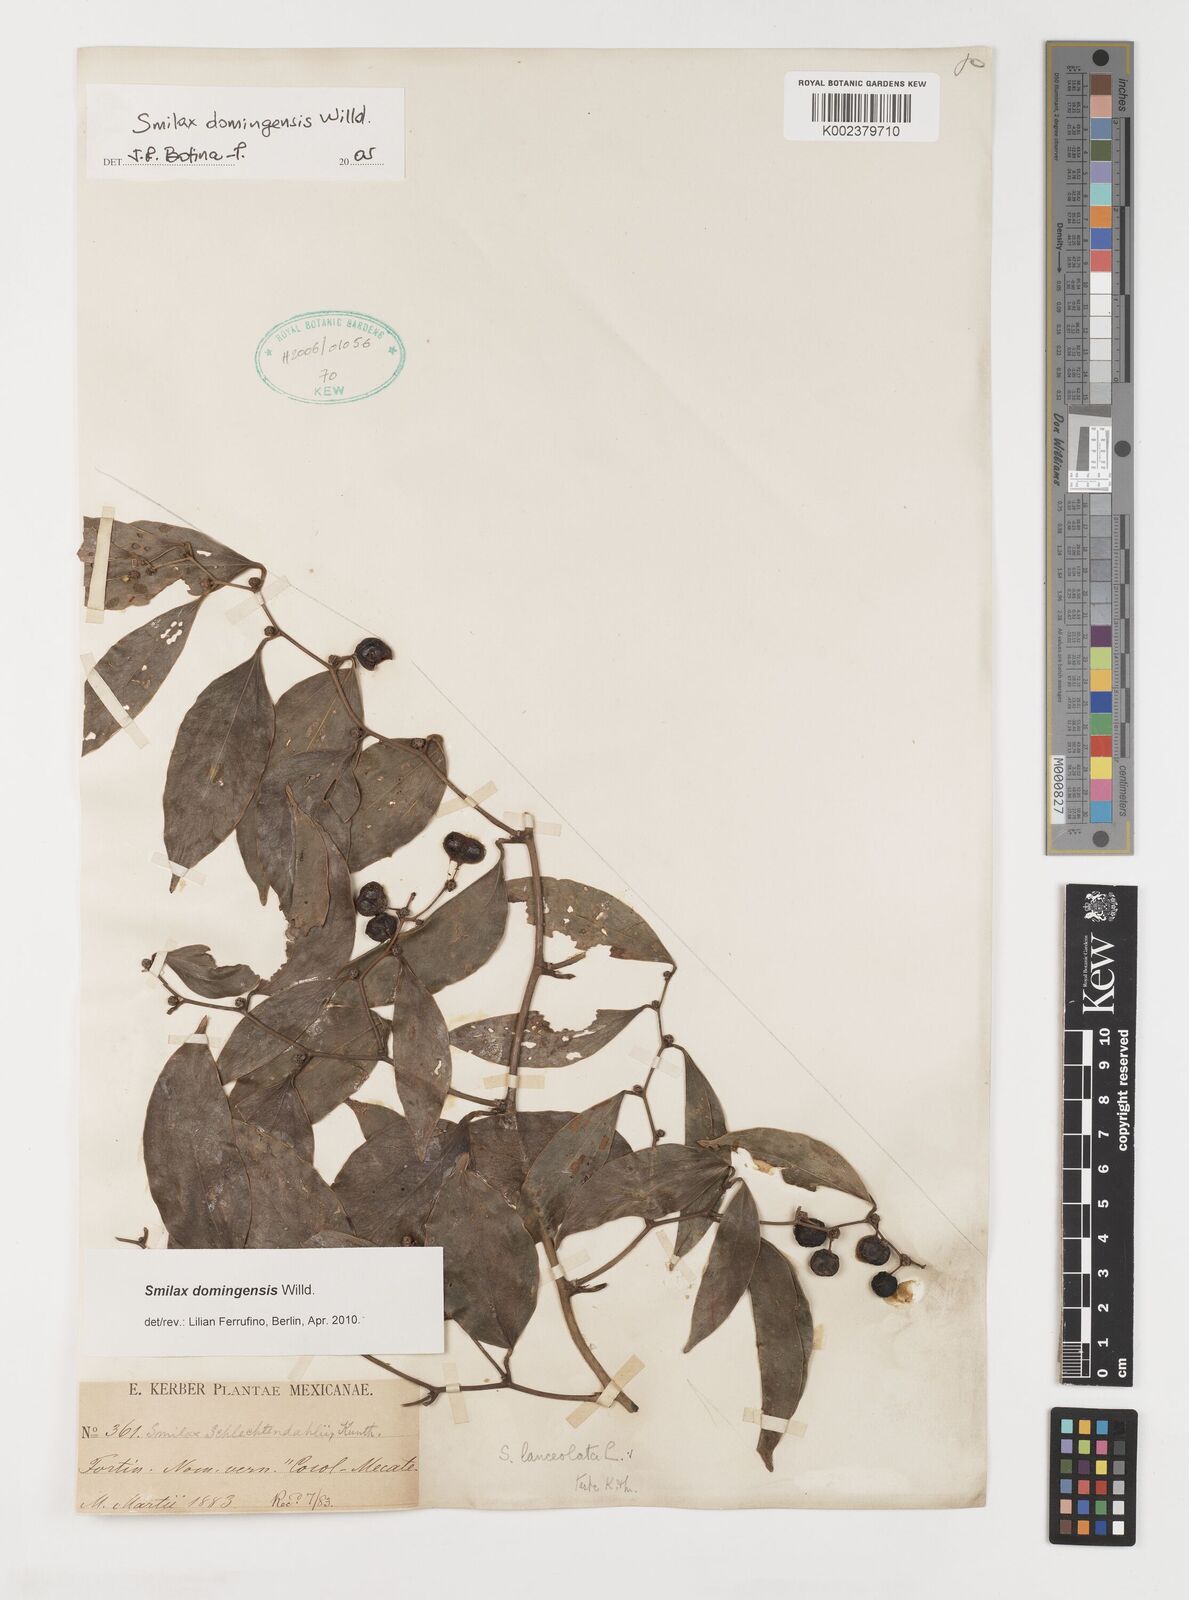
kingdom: Plantae
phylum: Tracheophyta
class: Liliopsida
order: Liliales
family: Smilacaceae
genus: Smilax
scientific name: Smilax domingensis
